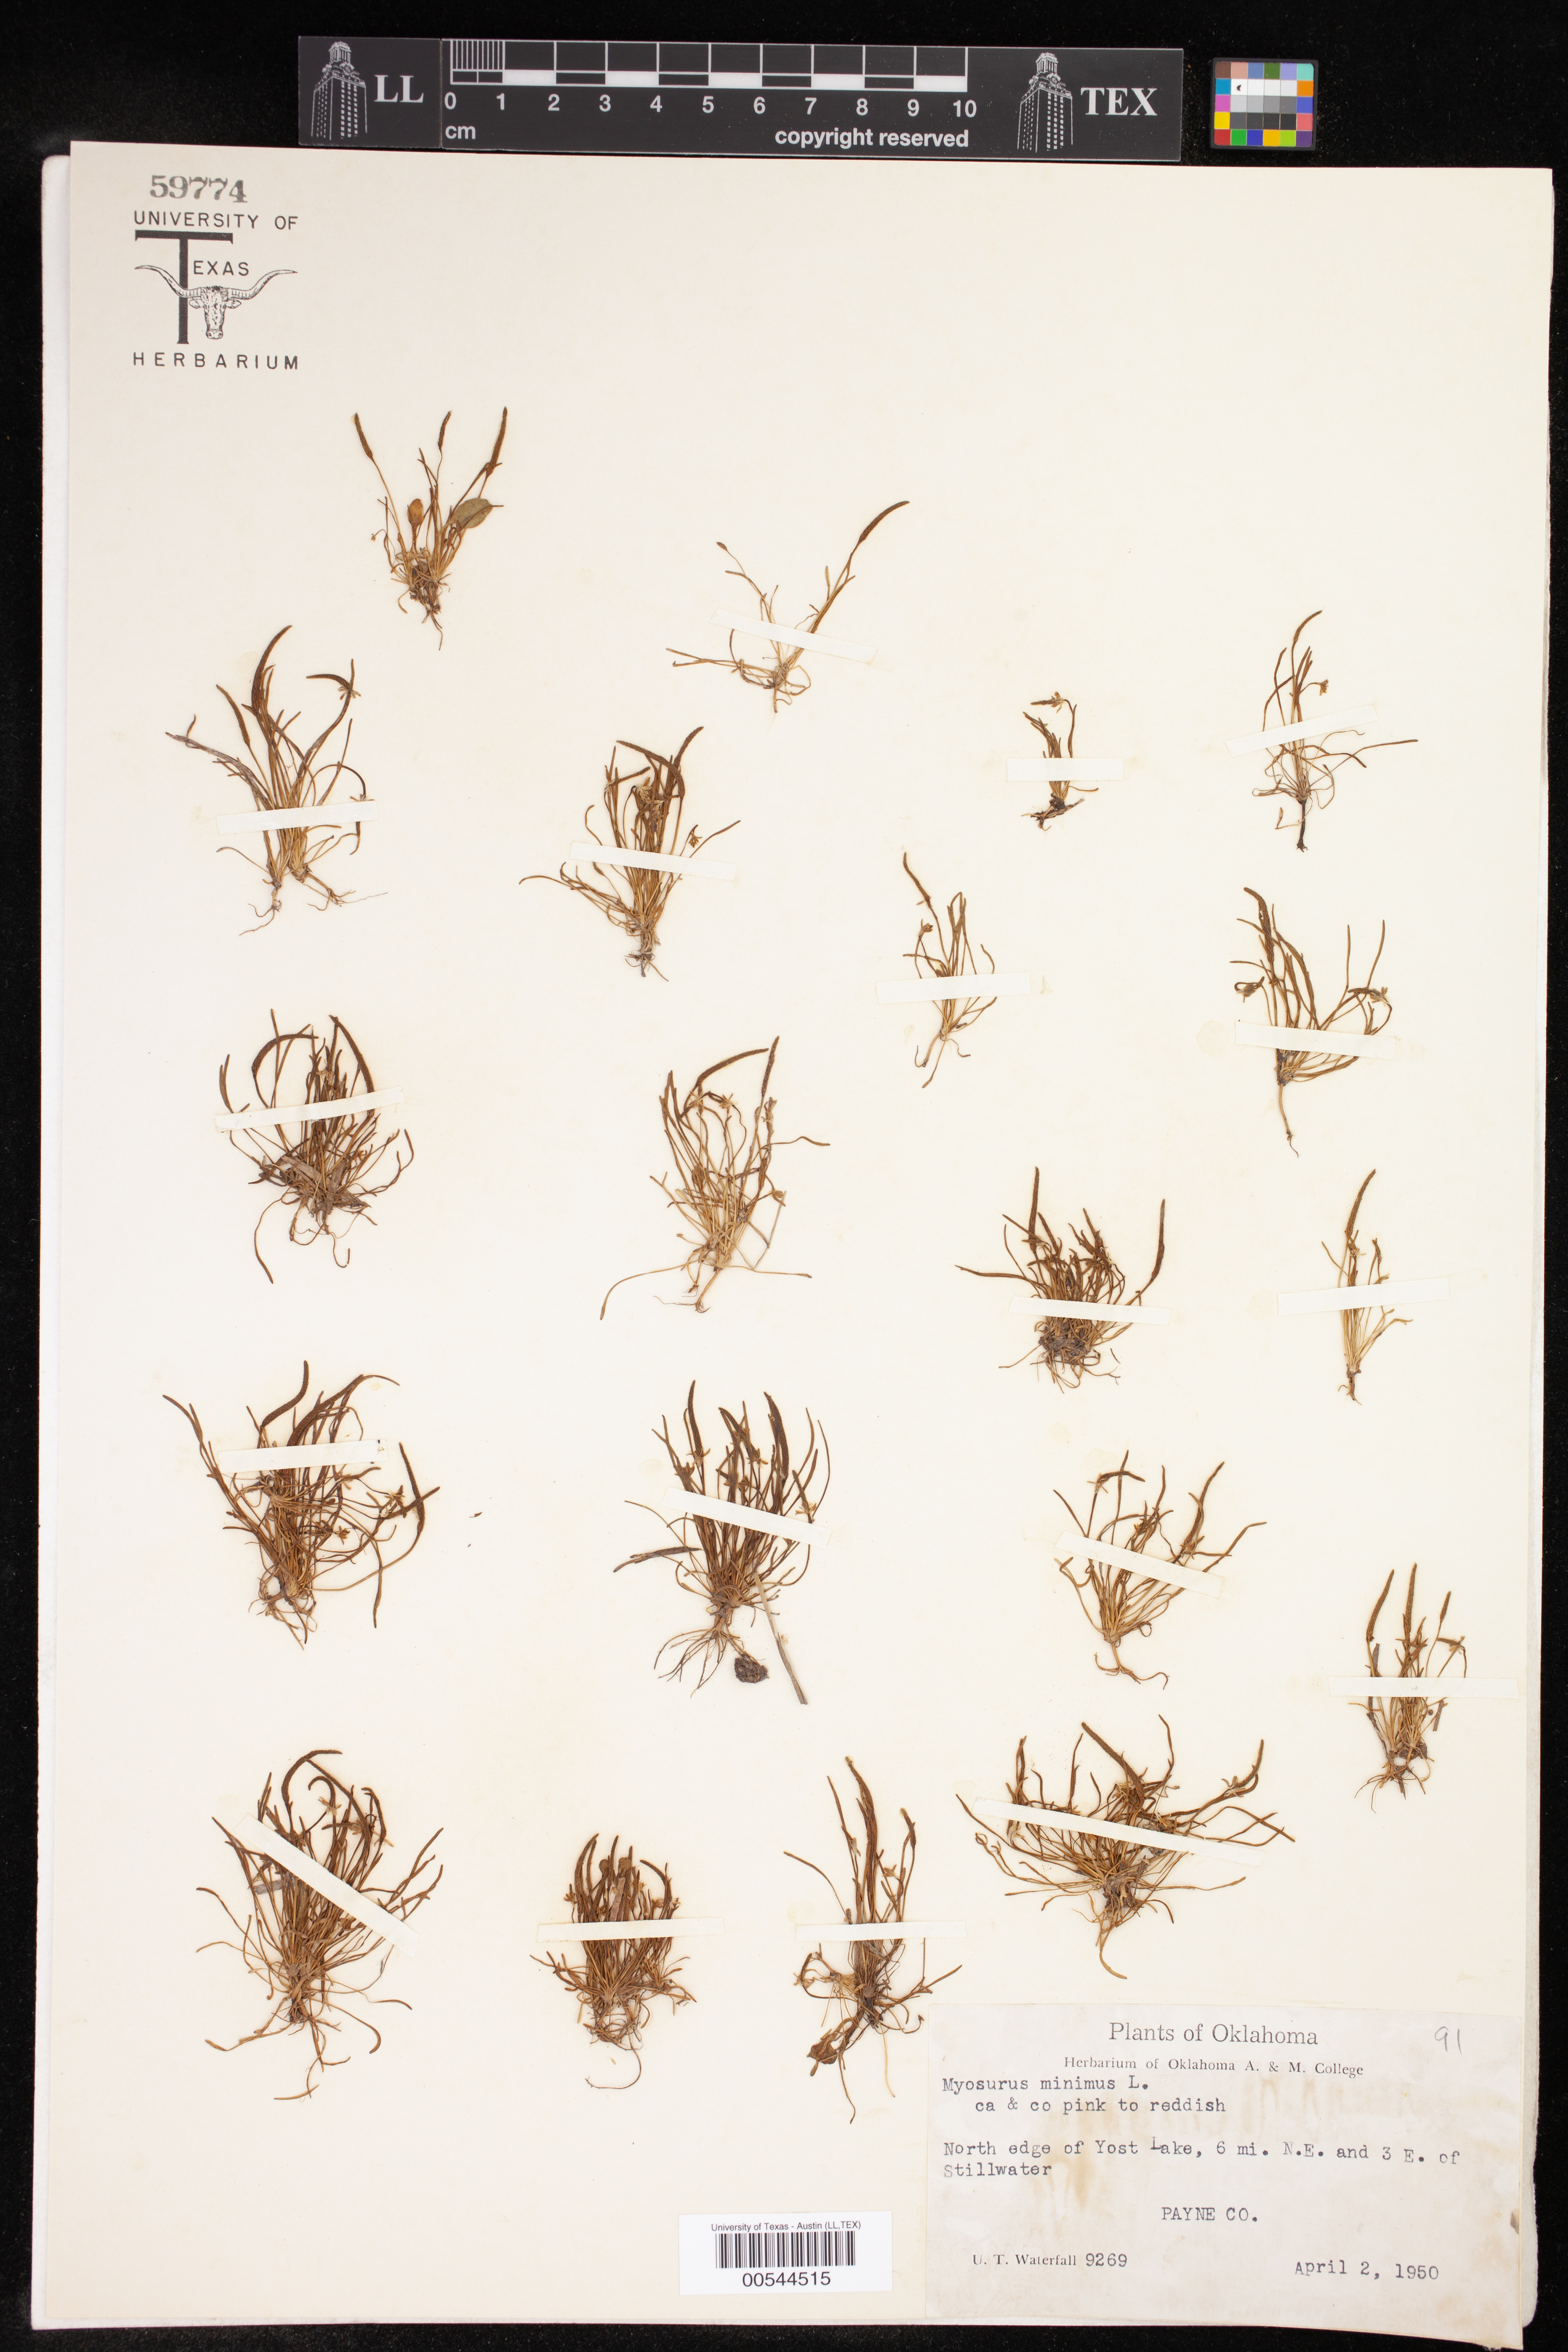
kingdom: Plantae
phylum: Tracheophyta
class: Magnoliopsida
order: Ranunculales
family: Ranunculaceae
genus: Myosurus
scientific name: Myosurus minimus
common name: Mousetail
